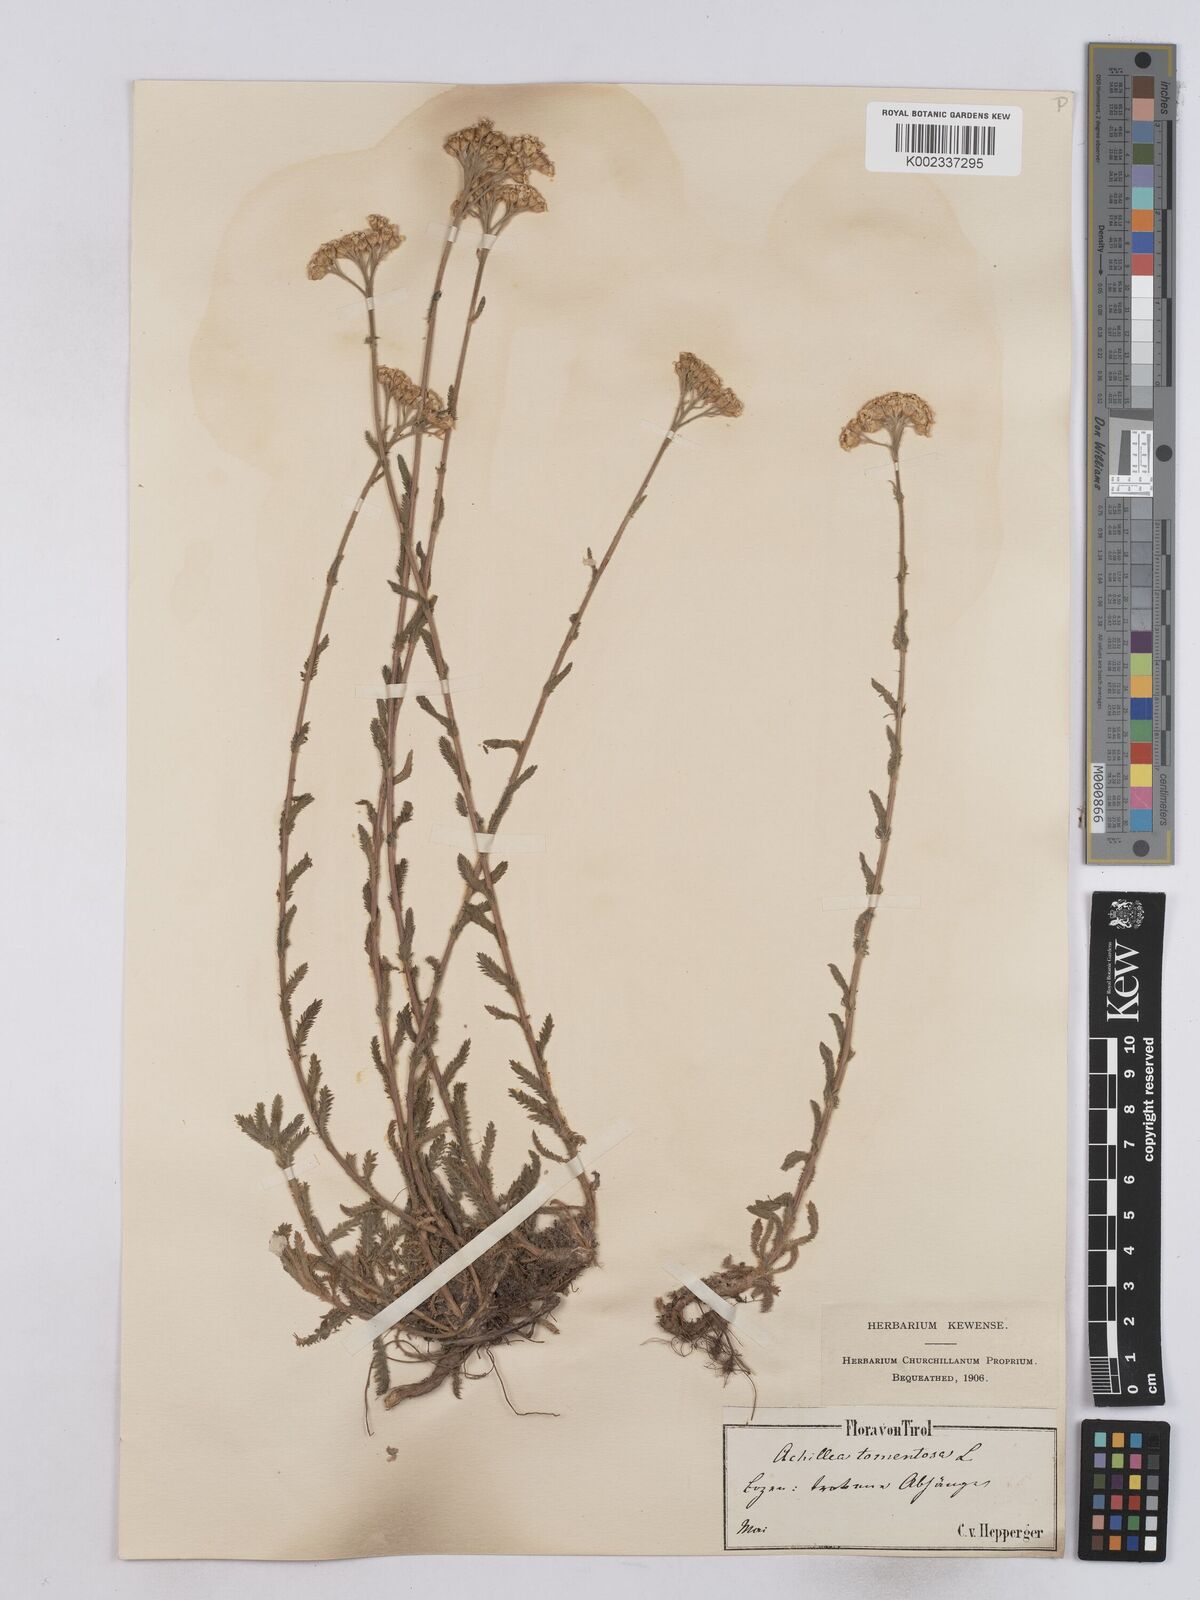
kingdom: Plantae
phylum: Tracheophyta
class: Magnoliopsida
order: Asterales
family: Asteraceae
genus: Achillea
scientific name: Achillea tomentosa
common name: Yellow milfoil
